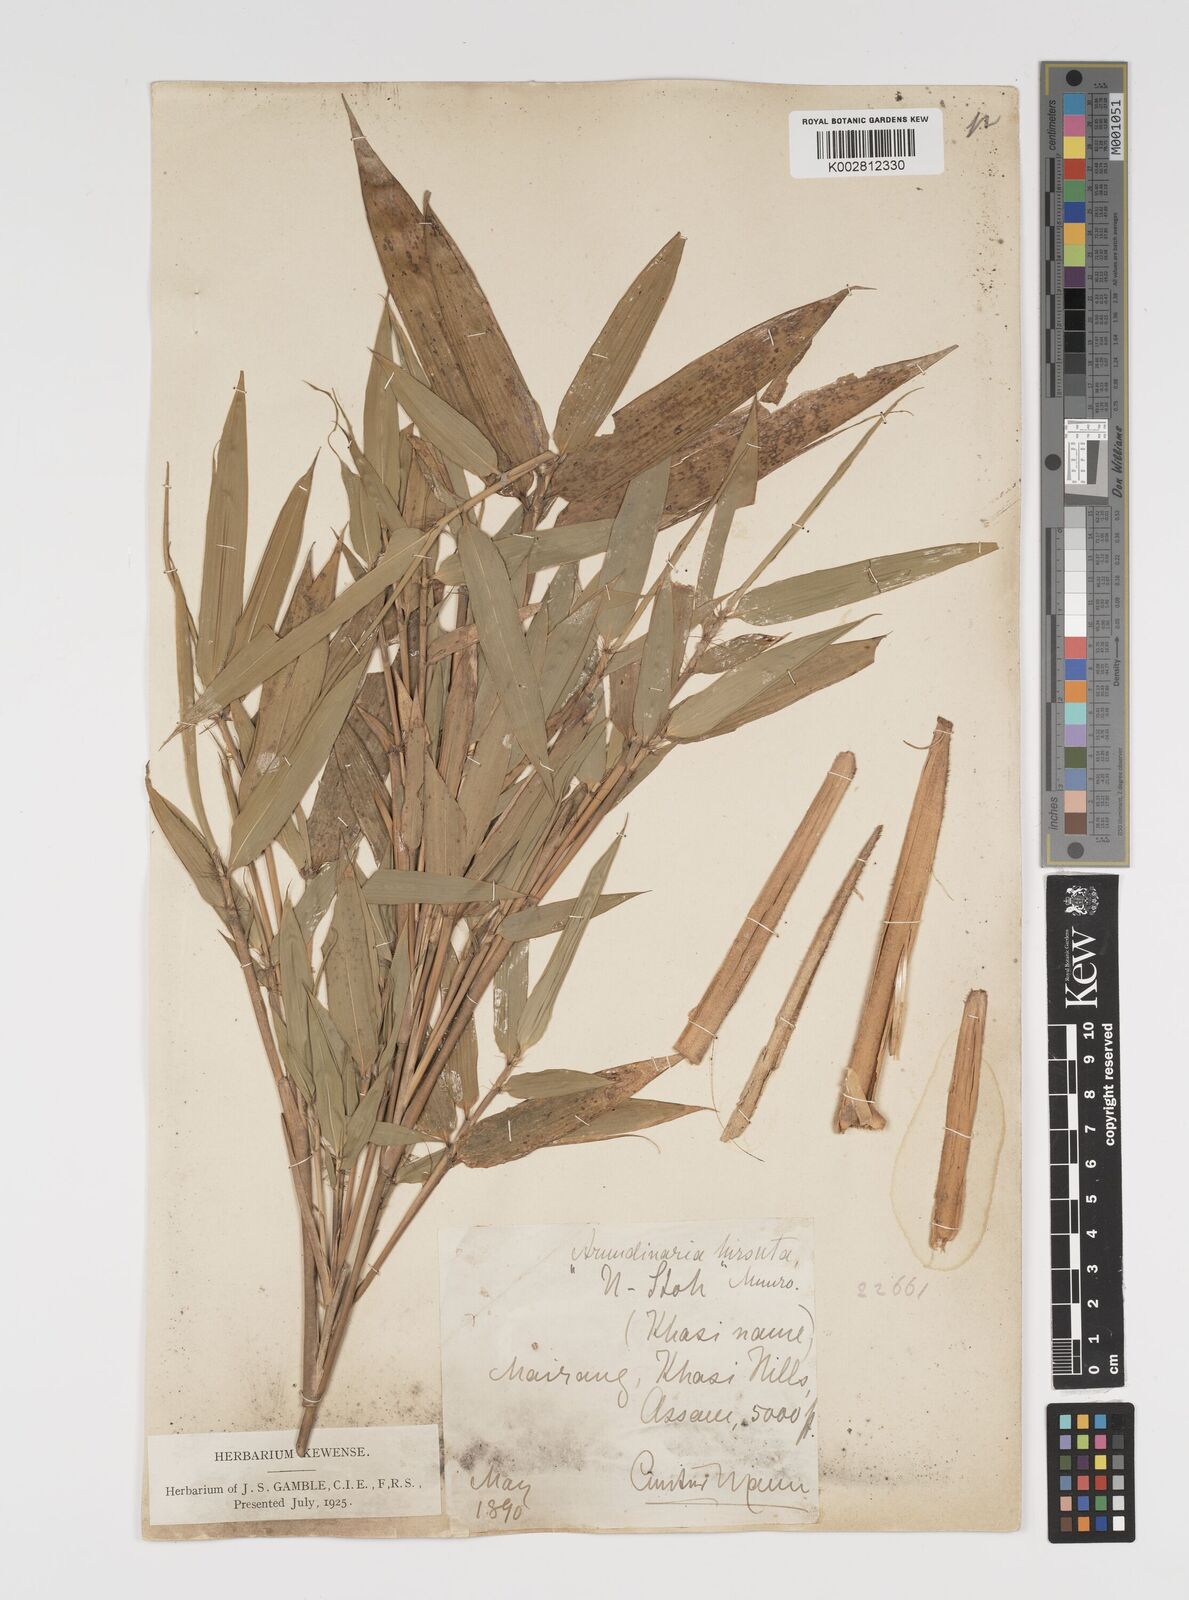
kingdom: Plantae
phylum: Tracheophyta
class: Liliopsida
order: Poales
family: Poaceae
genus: Yushania
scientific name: Yushania hirsuta
